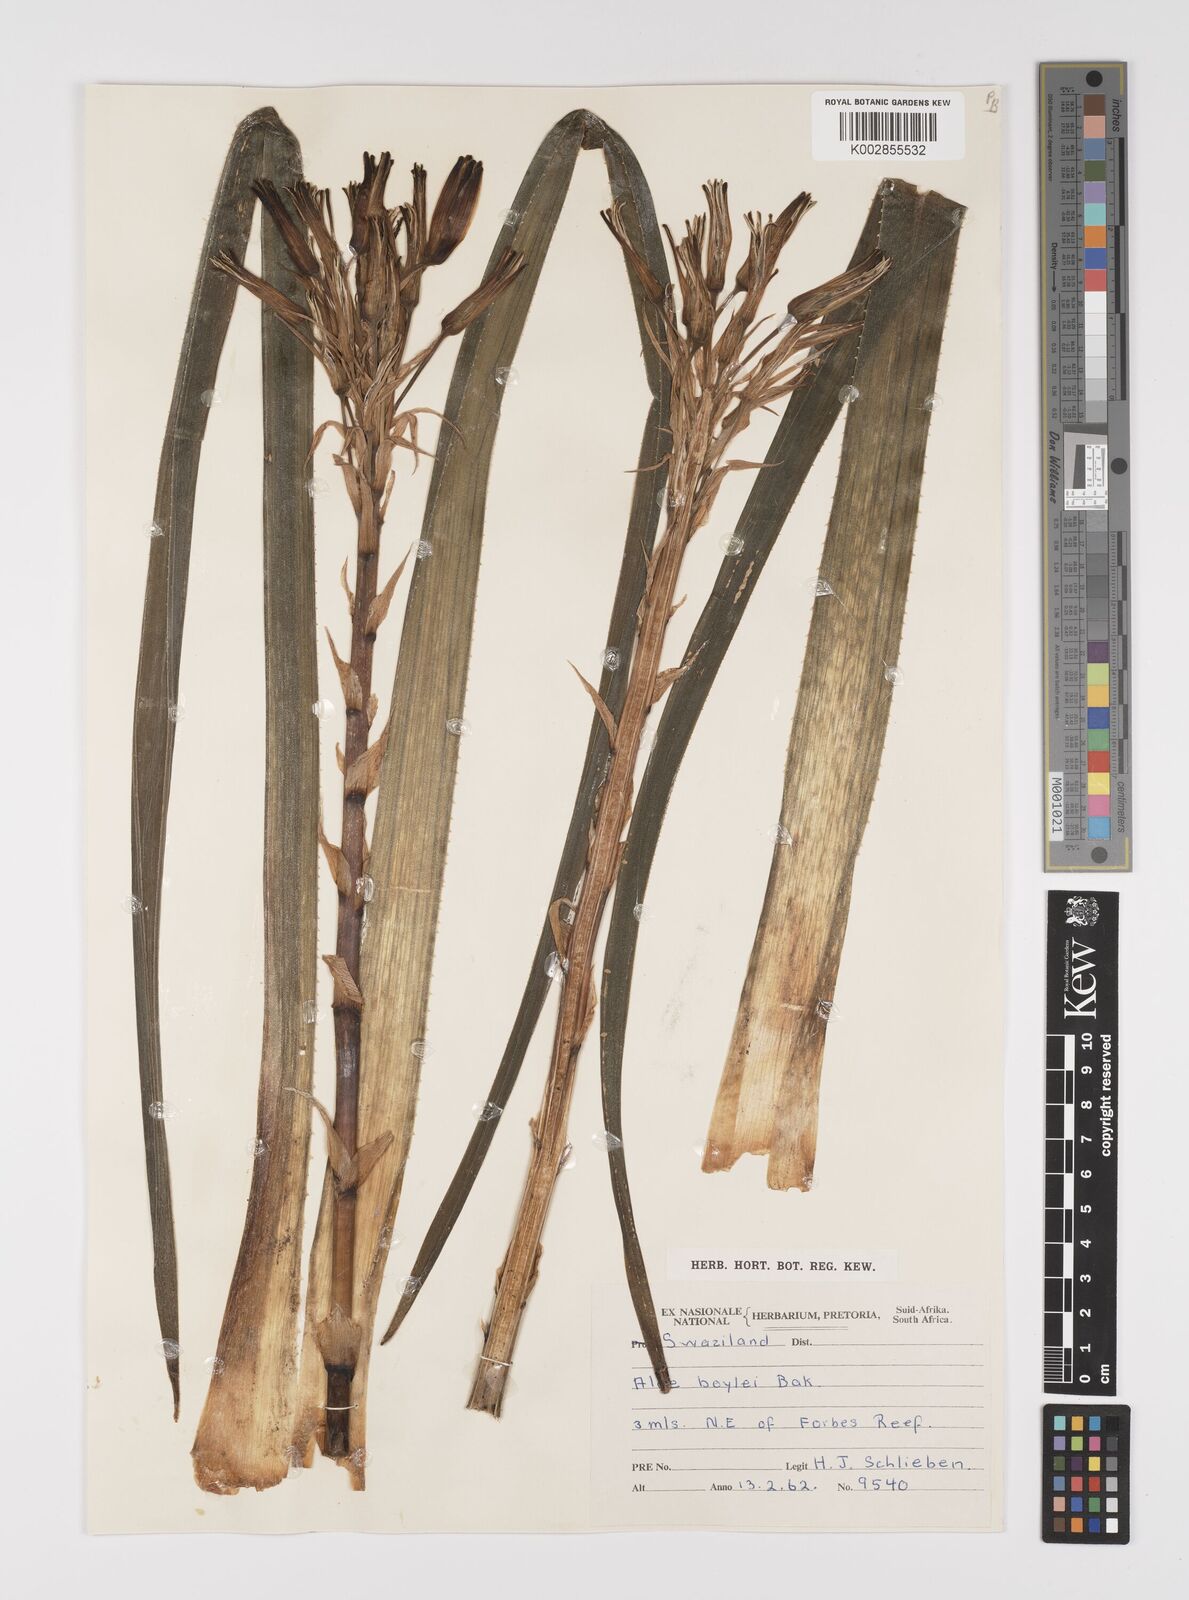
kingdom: Plantae
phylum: Tracheophyta
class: Liliopsida
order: Asparagales
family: Asphodelaceae
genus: Aloe
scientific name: Aloe boylei
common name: Broad-leaved grass aloe
